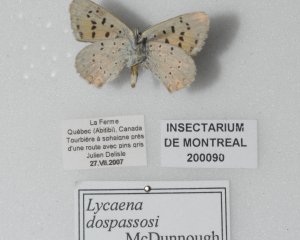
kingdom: Animalia
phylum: Arthropoda
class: Insecta
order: Lepidoptera
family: Lycaenidae
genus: Epidemia
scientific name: Epidemia dorcas
